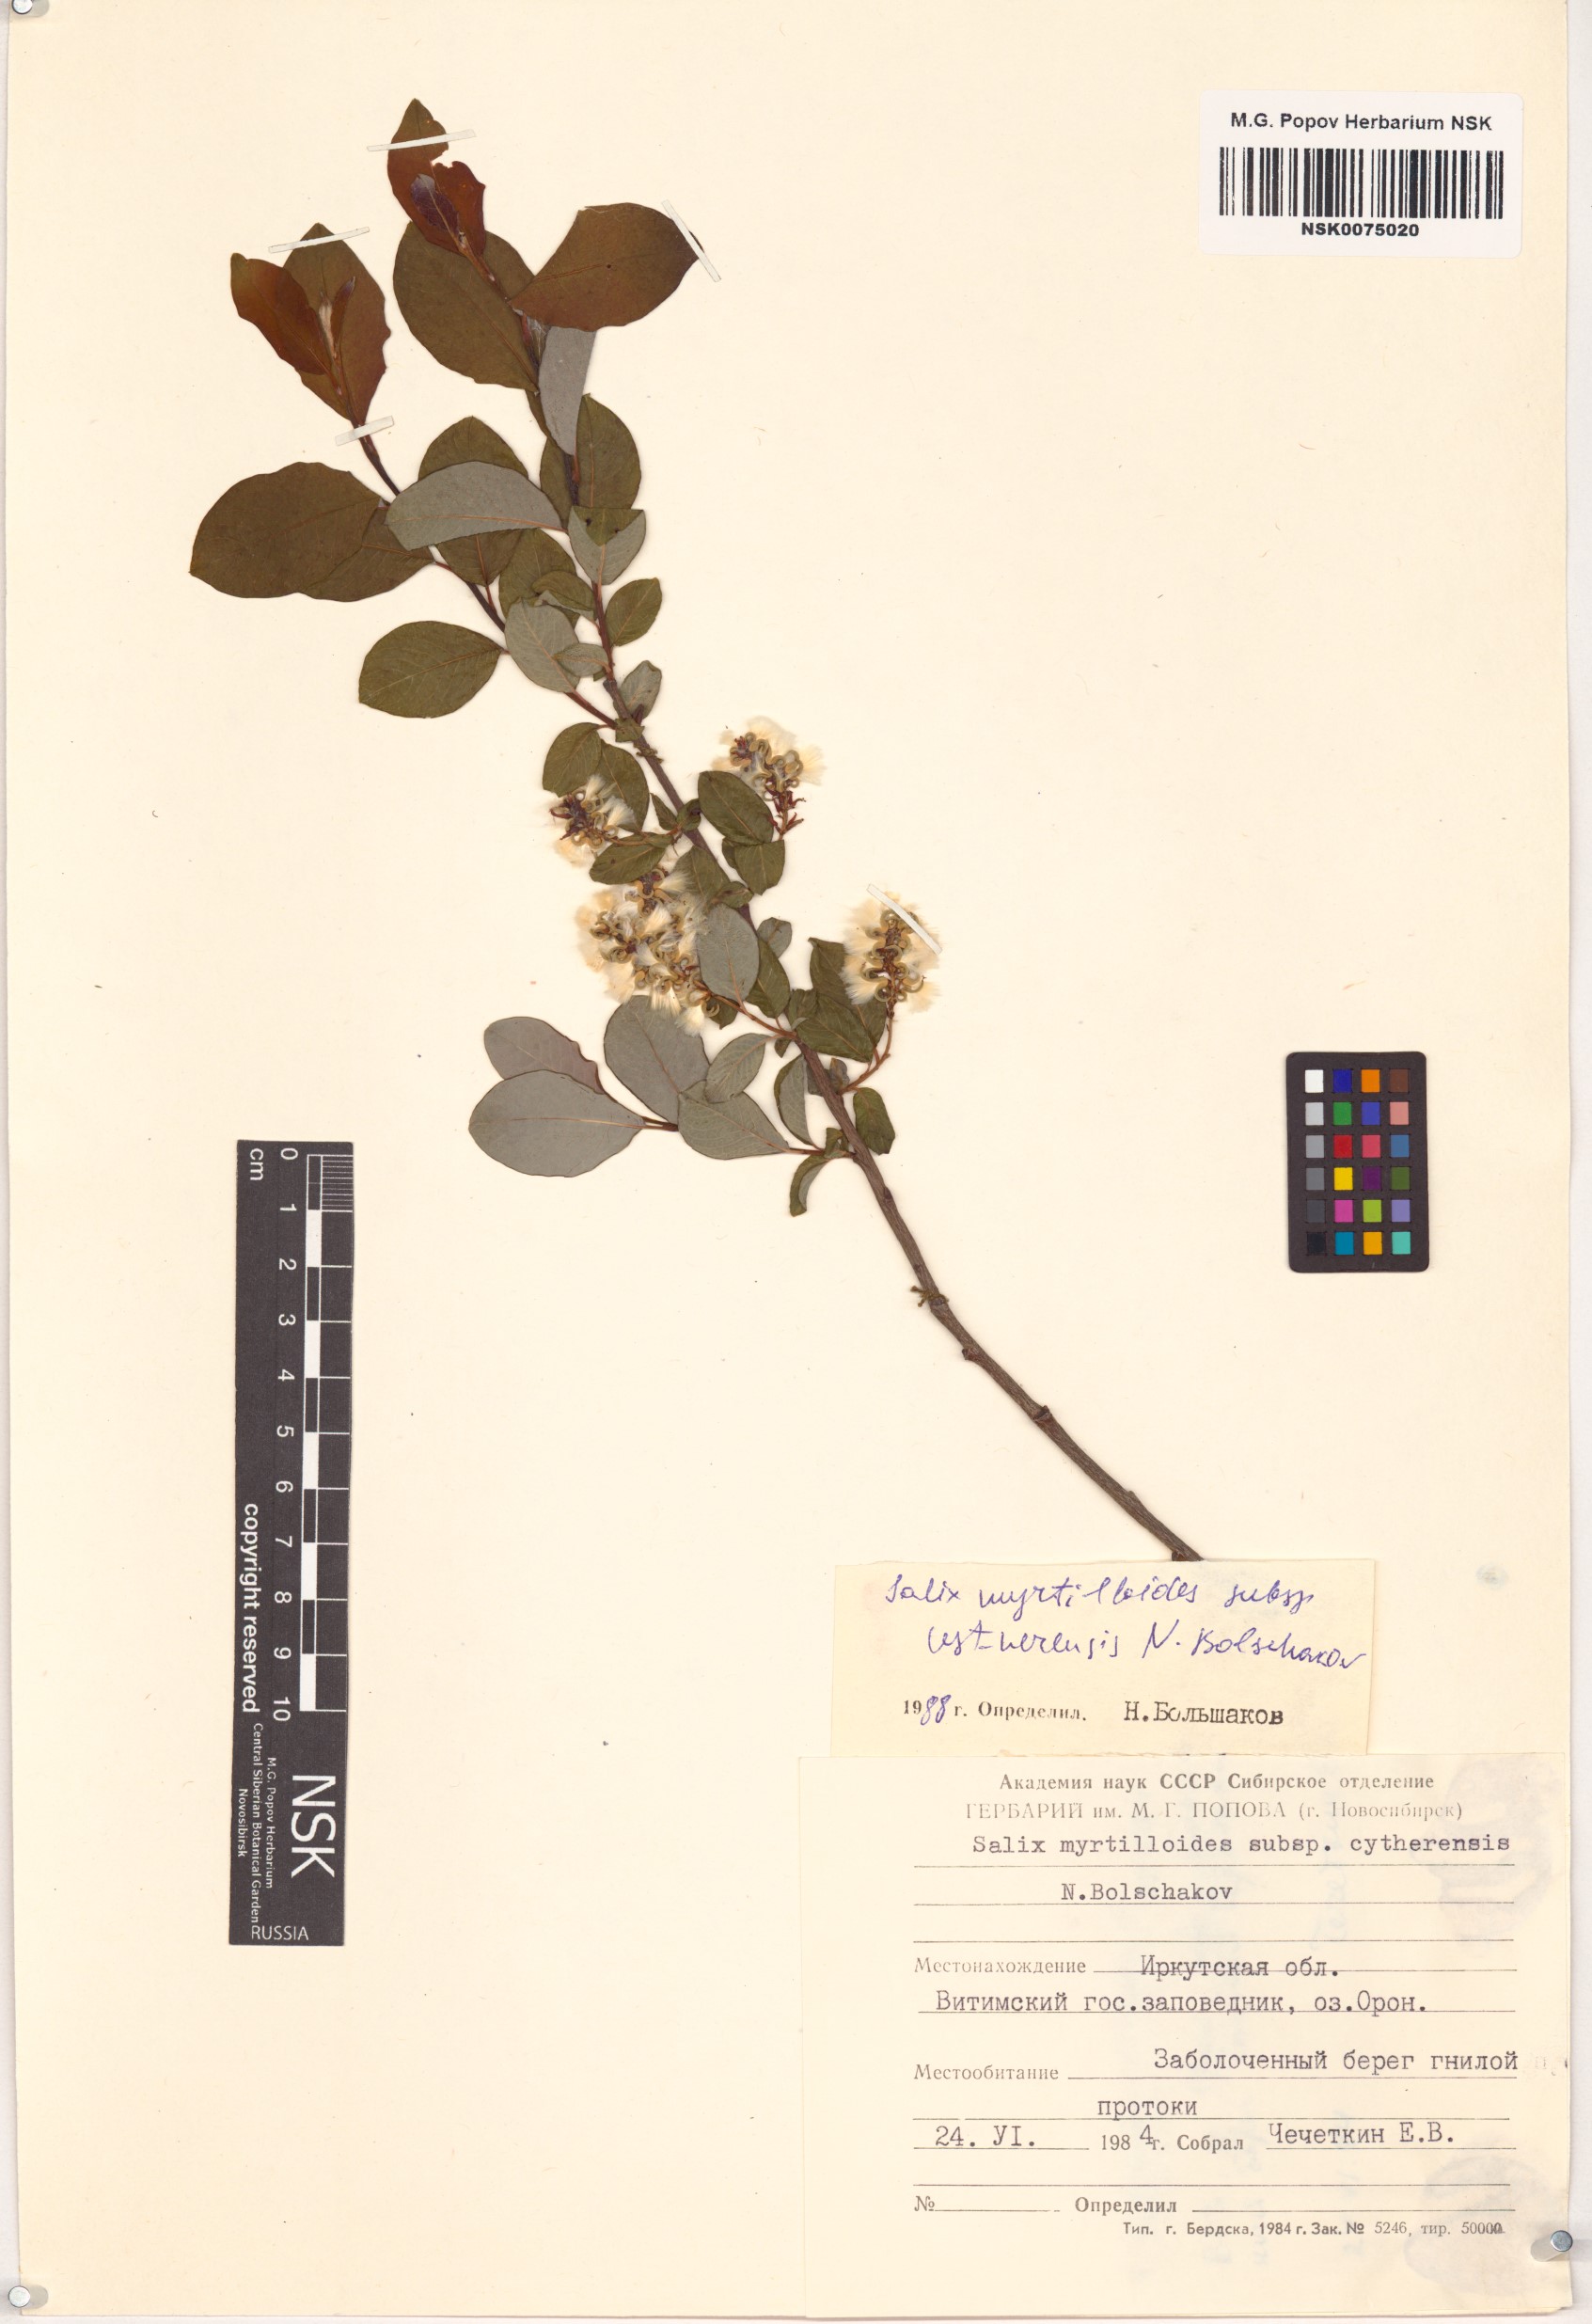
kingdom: Plantae
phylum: Tracheophyta
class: Magnoliopsida
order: Malpighiales
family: Salicaceae
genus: Salix
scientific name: Salix ustnerensis
